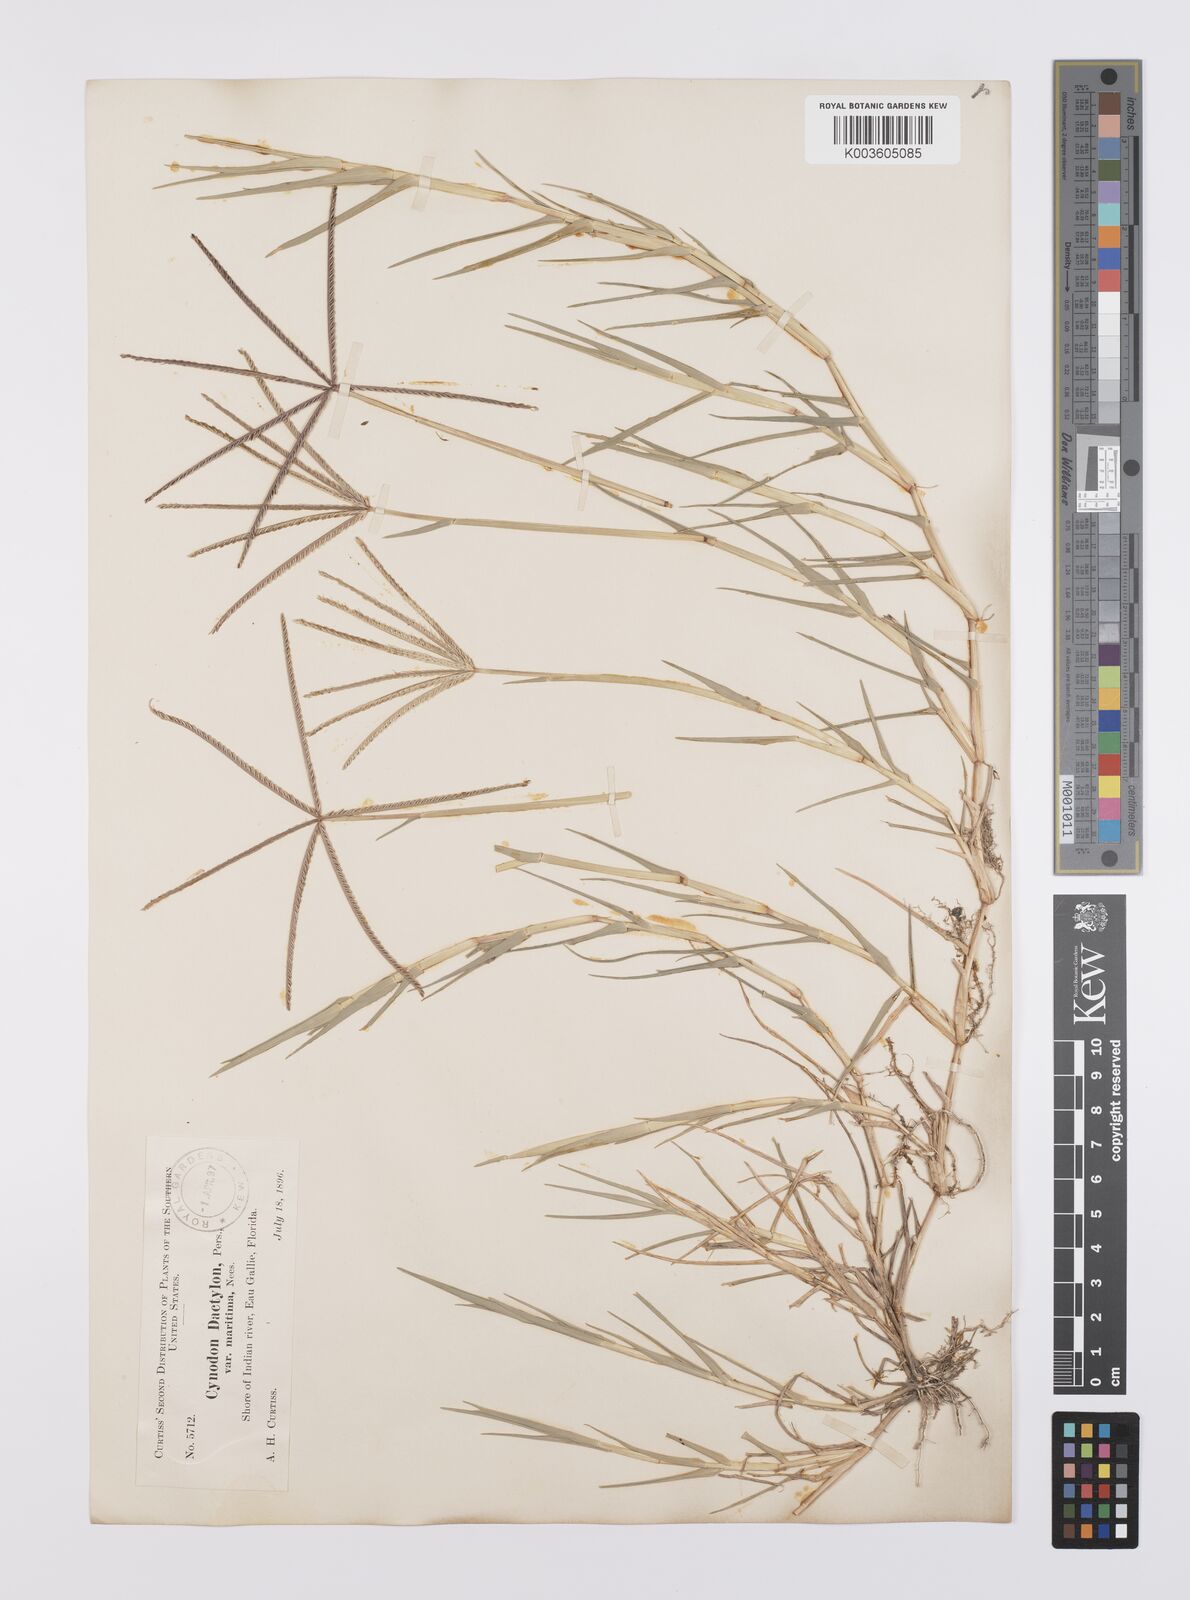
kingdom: Plantae
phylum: Tracheophyta
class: Liliopsida
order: Poales
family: Poaceae
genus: Cynodon
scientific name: Cynodon dactylon
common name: Bermuda grass
